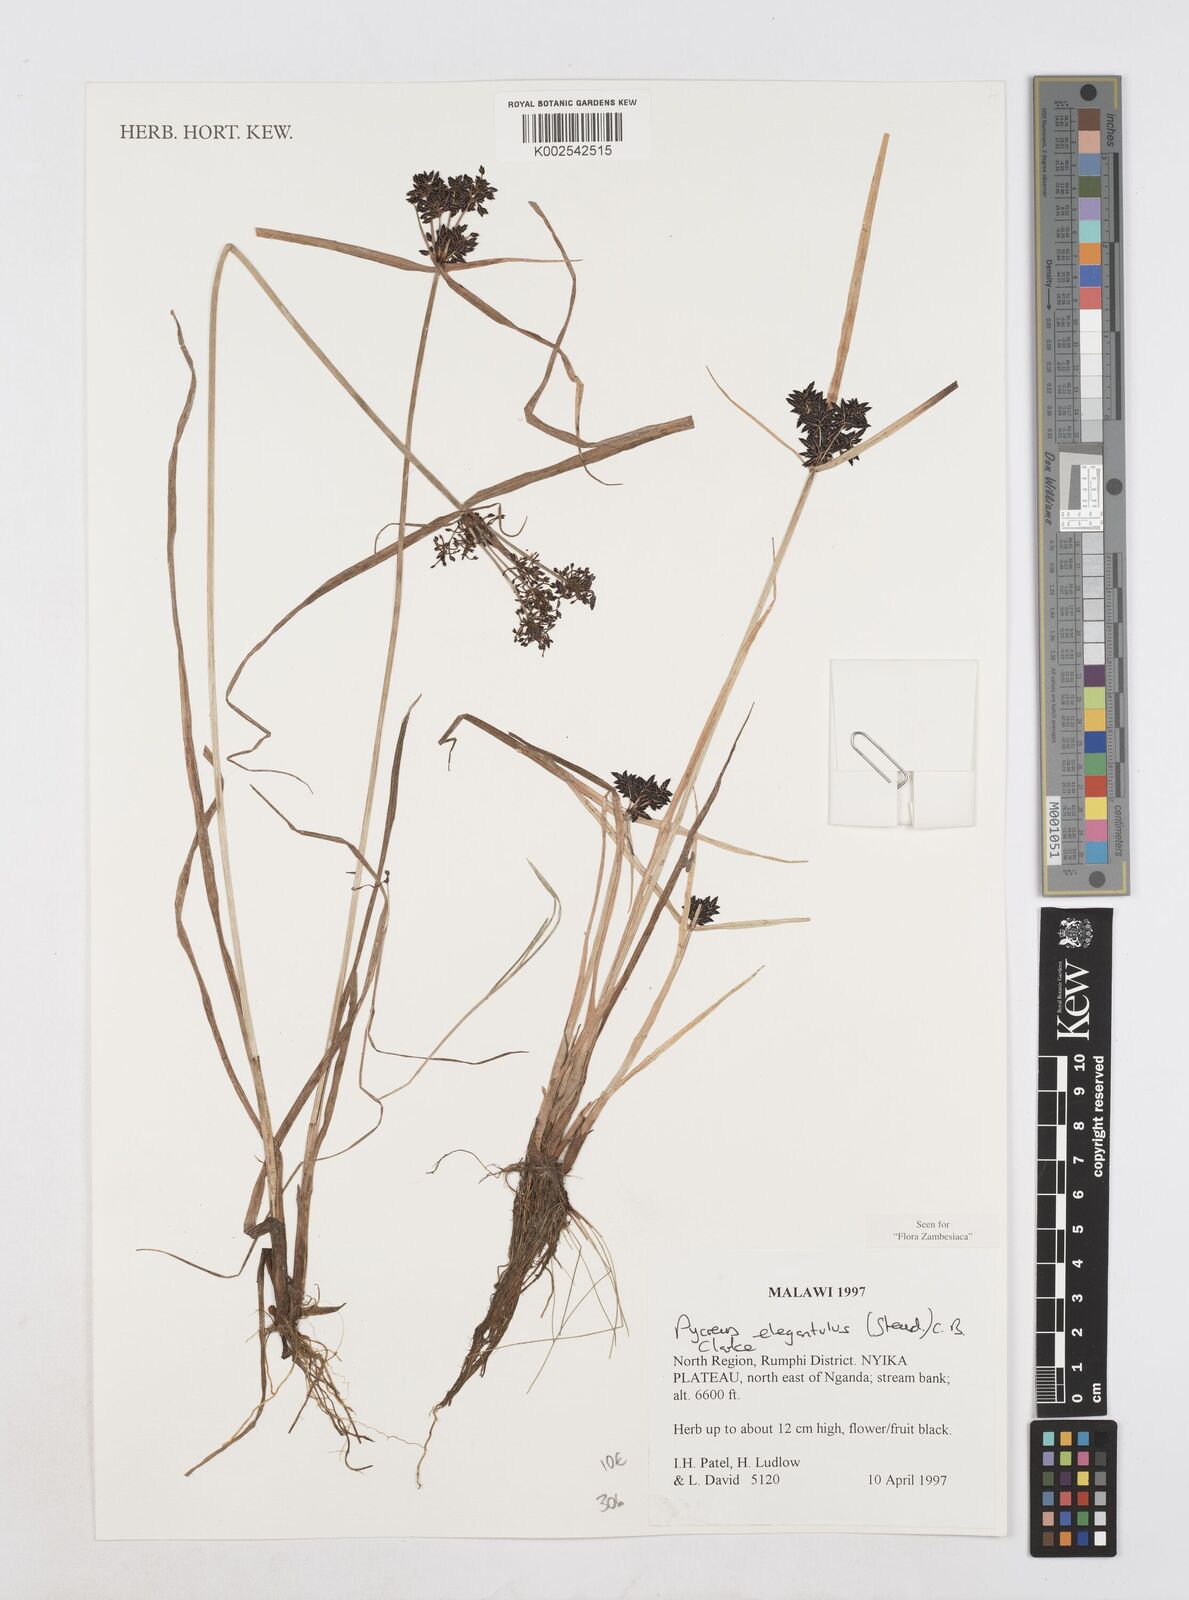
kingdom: Plantae
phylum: Tracheophyta
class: Liliopsida
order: Poales
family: Cyperaceae
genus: Cyperus
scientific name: Cyperus elegantulus
